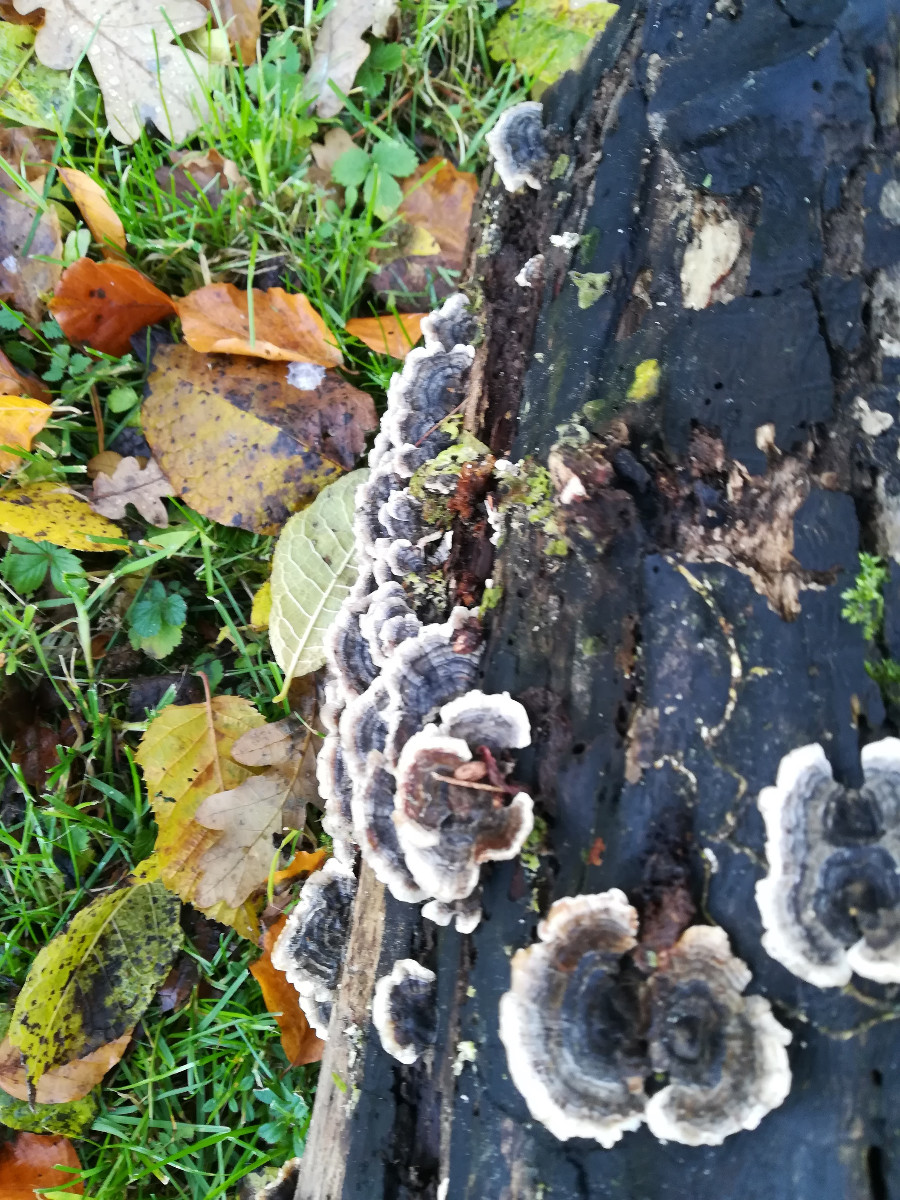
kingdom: Fungi
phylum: Basidiomycota
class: Agaricomycetes
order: Polyporales
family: Polyporaceae
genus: Trametes
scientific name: Trametes versicolor
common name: broget læderporesvamp
